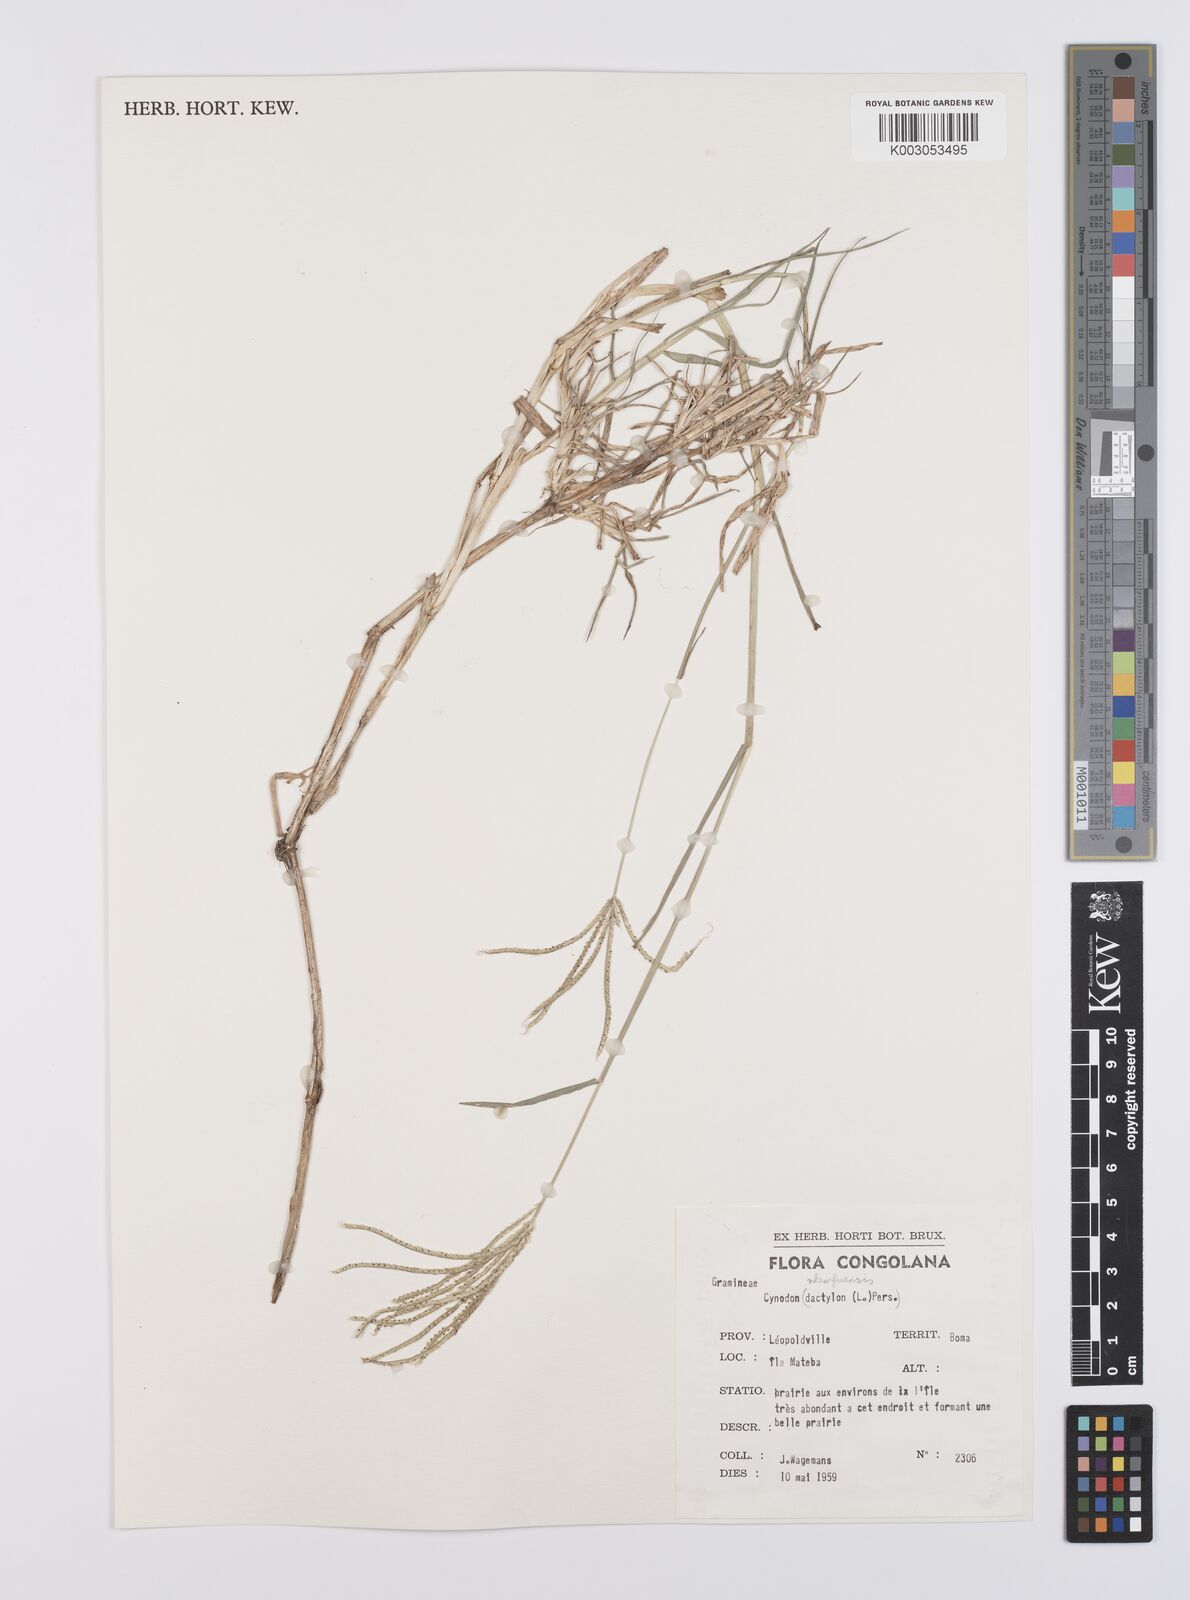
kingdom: Plantae
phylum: Tracheophyta
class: Liliopsida
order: Poales
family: Poaceae
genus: Cynodon
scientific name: Cynodon nlemfuensis
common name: African bermudagrass
